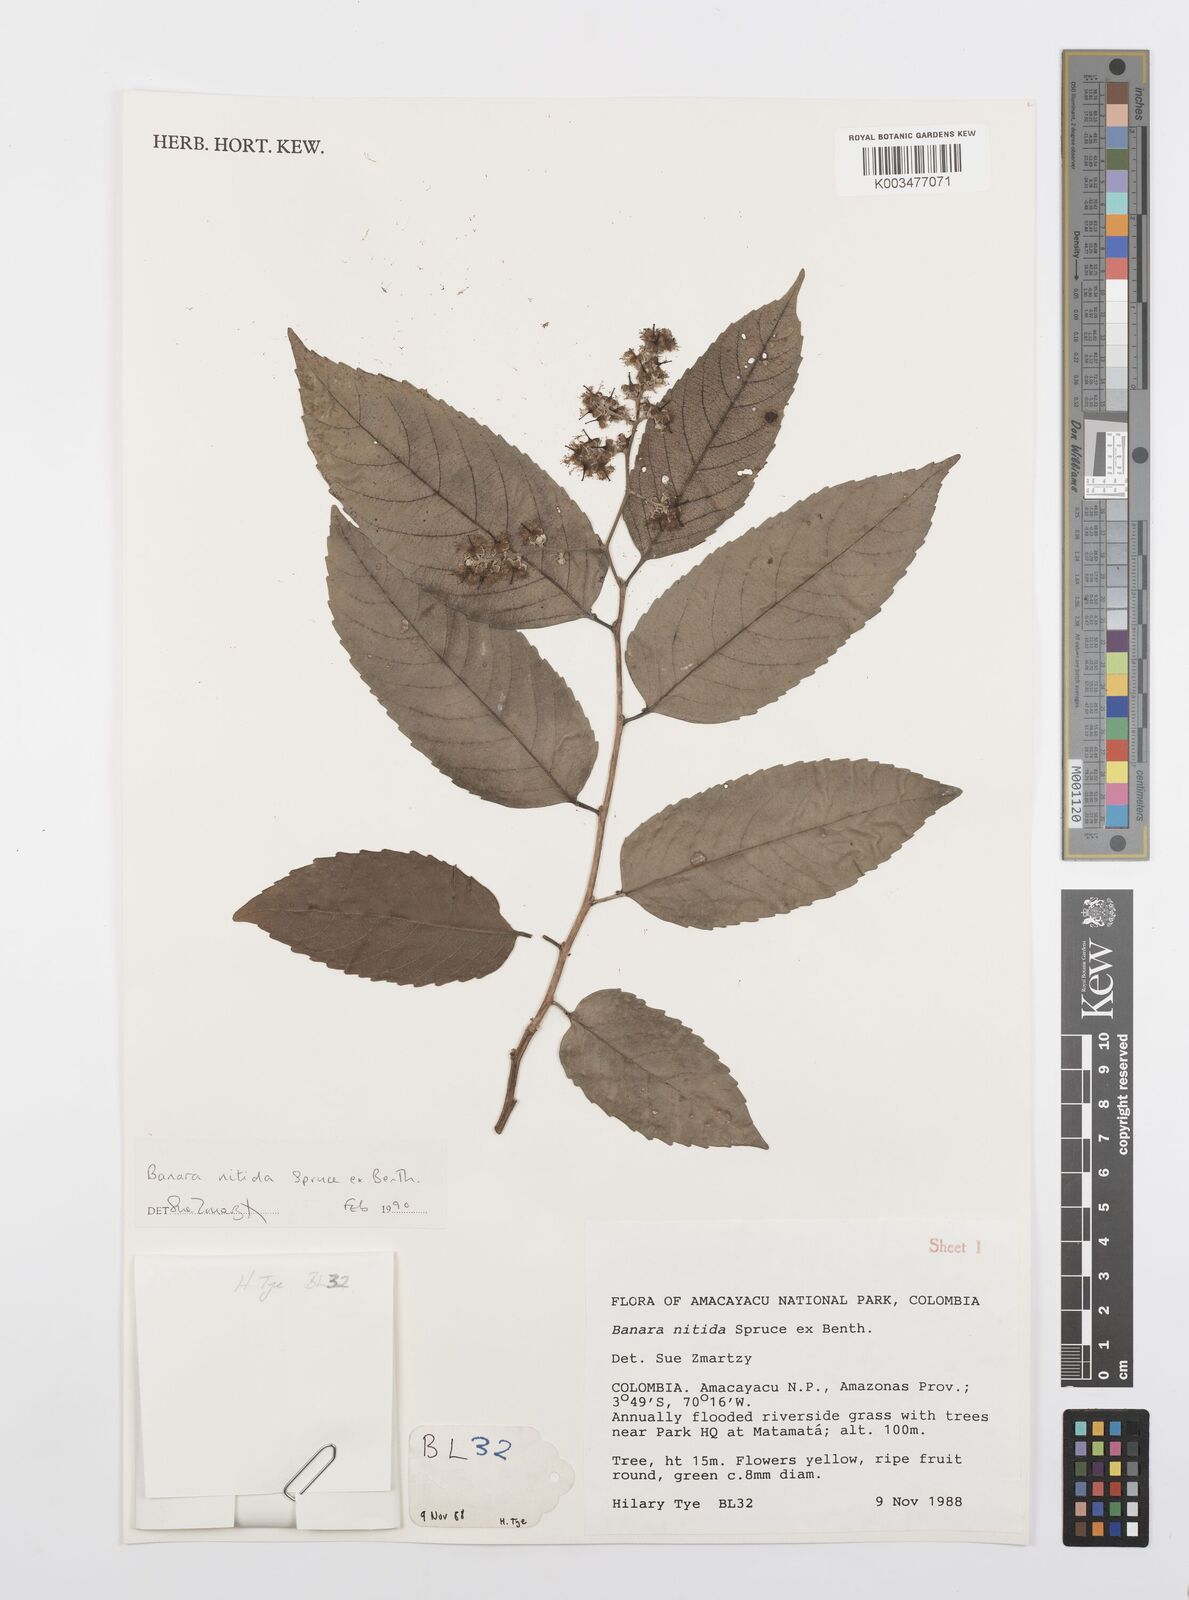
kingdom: Plantae
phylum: Tracheophyta
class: Magnoliopsida
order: Malpighiales
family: Salicaceae
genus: Banara
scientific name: Banara nitida
